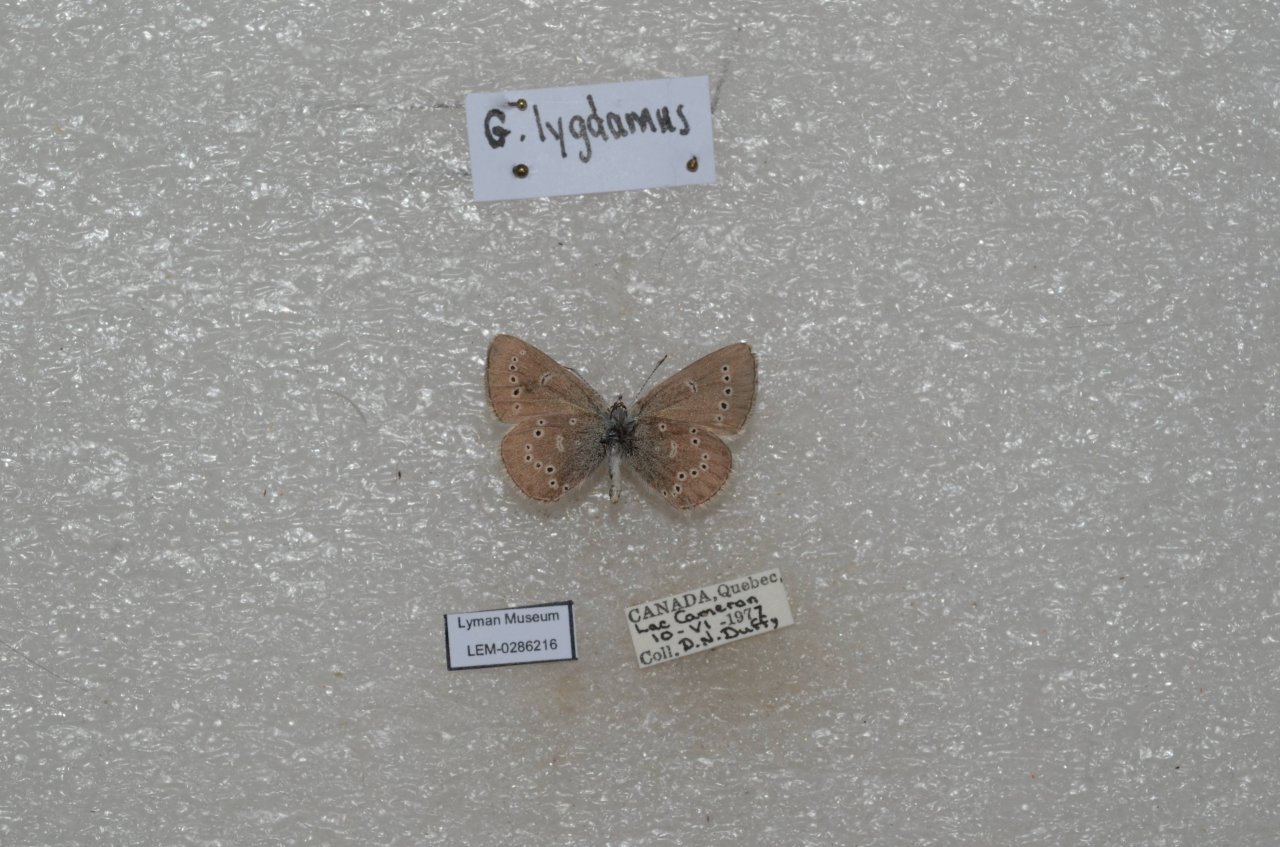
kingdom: Animalia
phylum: Arthropoda
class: Insecta
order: Lepidoptera
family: Lycaenidae
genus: Glaucopsyche
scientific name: Glaucopsyche lygdamus
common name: Silvery Blue
